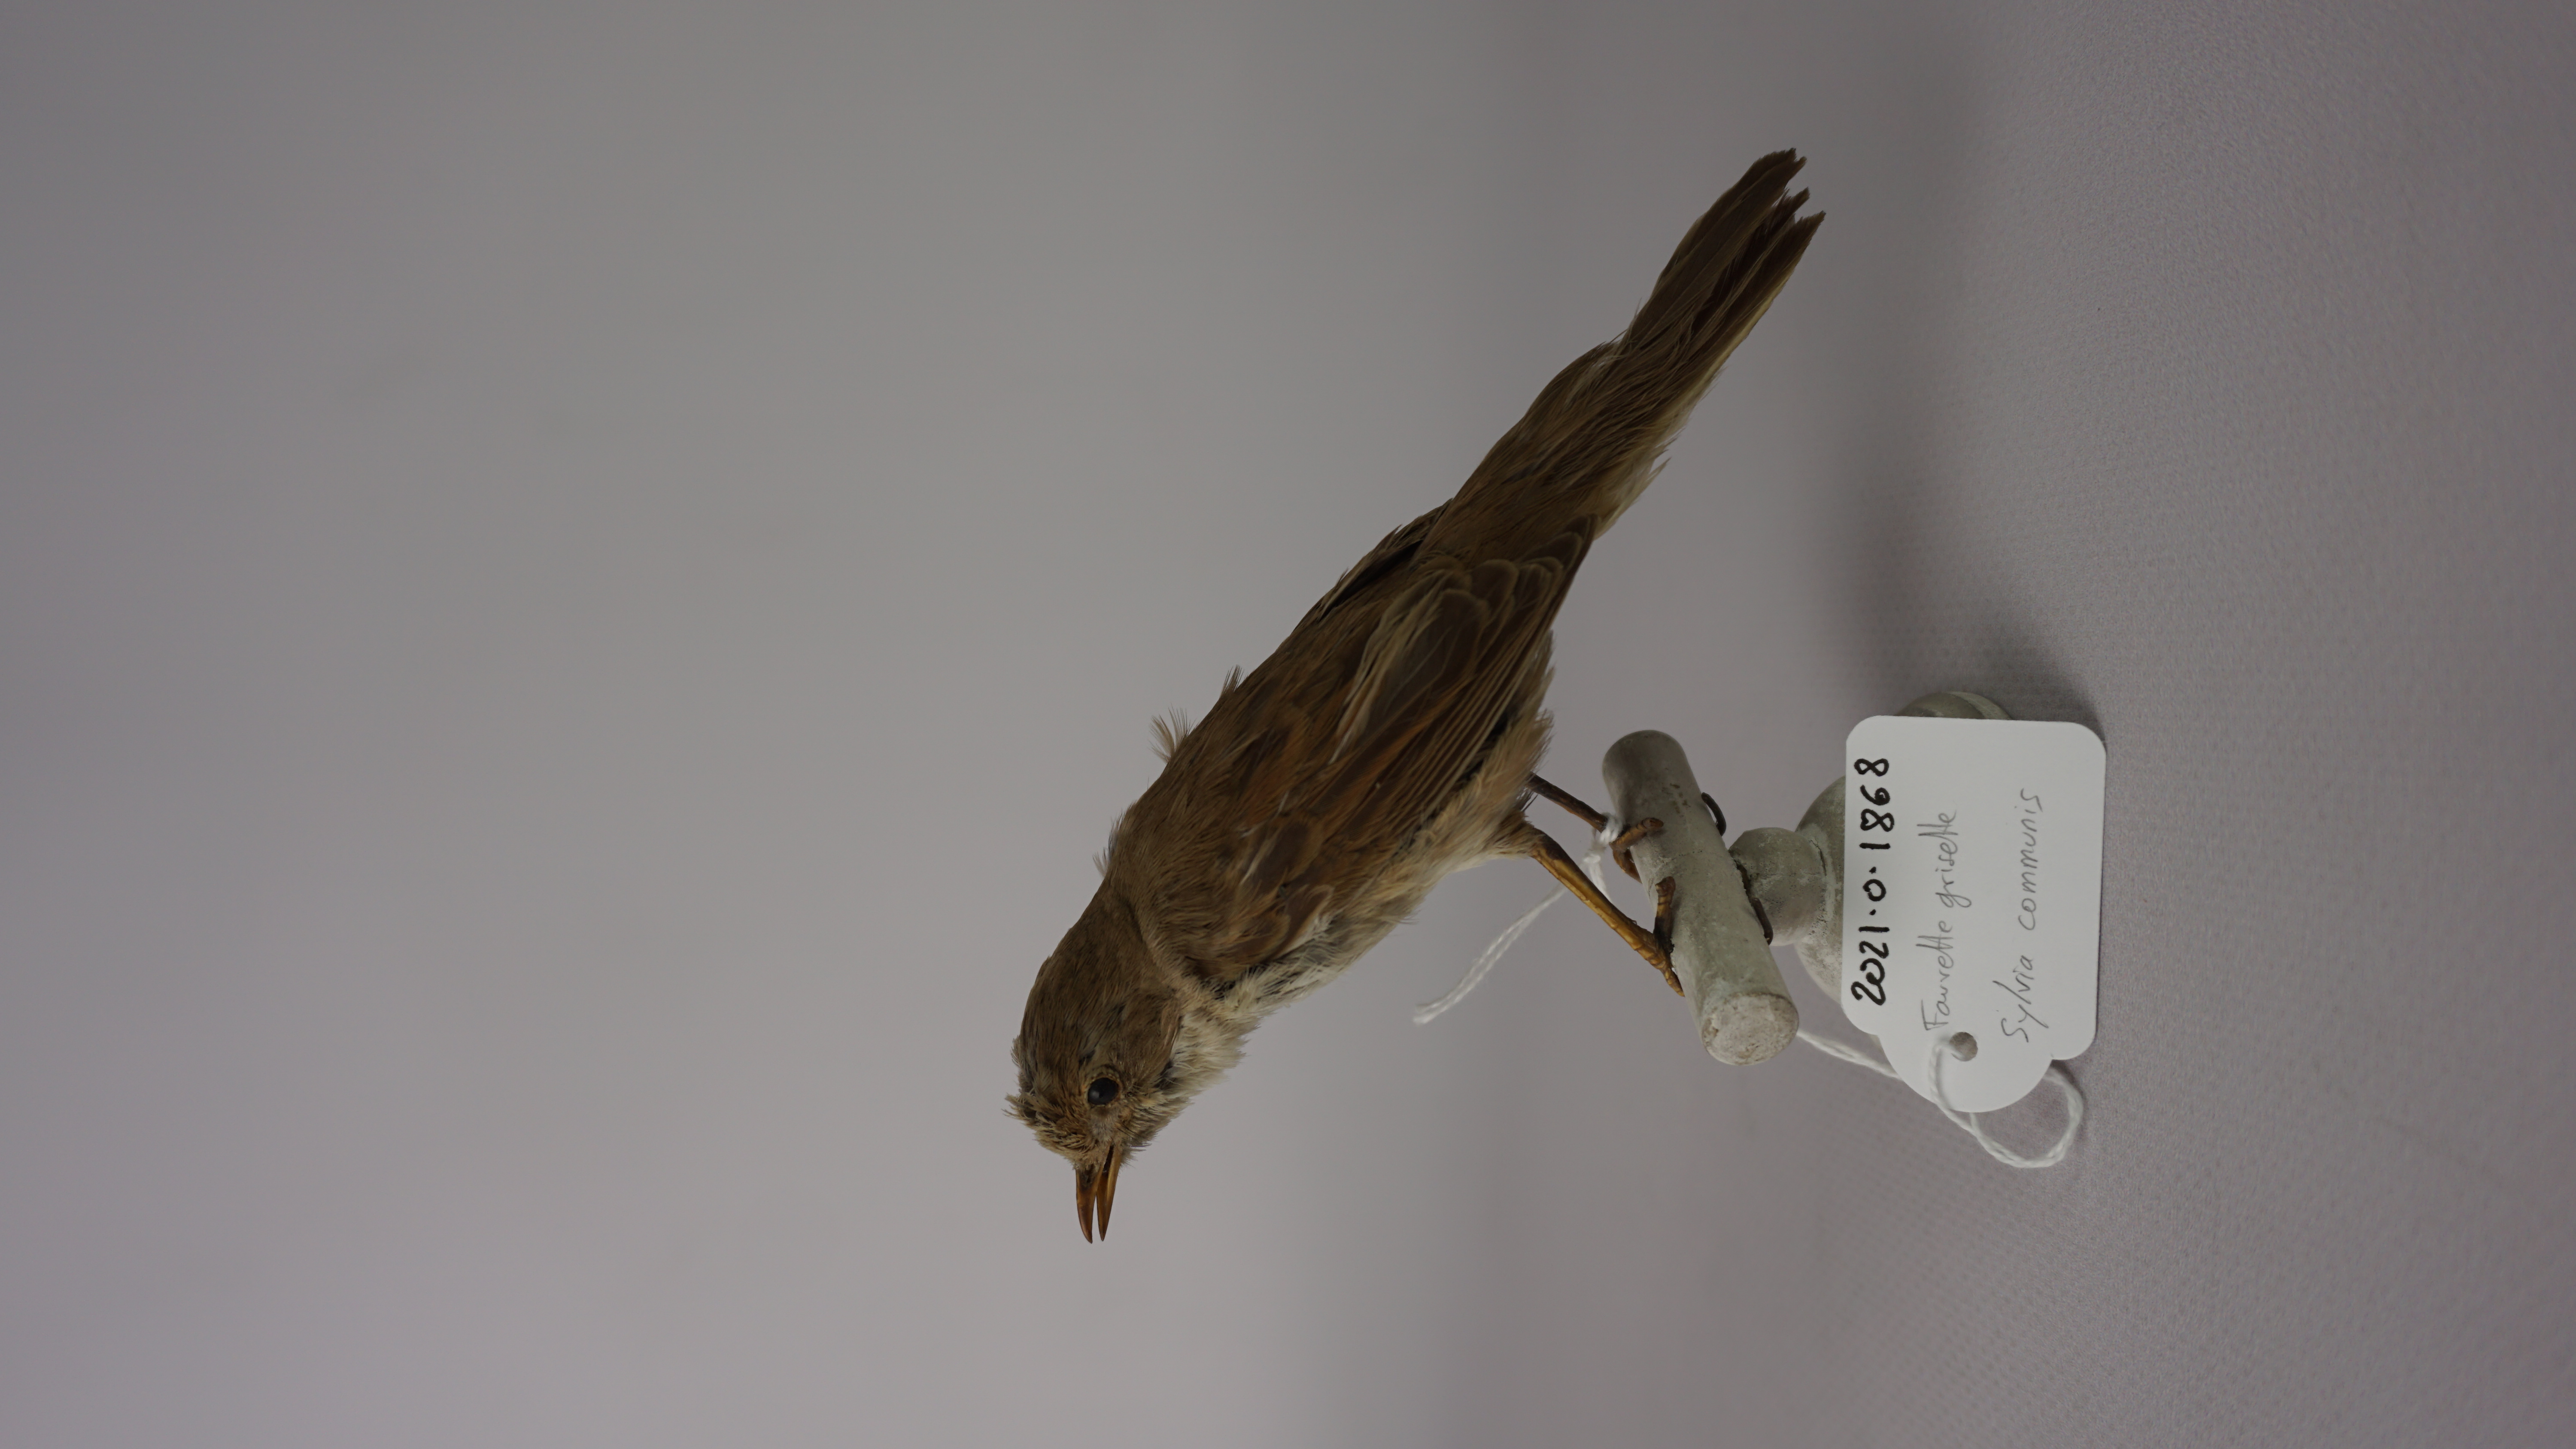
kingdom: Animalia
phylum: Chordata
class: Aves
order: Passeriformes
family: Sylviidae
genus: Sylvia
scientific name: Sylvia communis
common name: Common whitethroat
